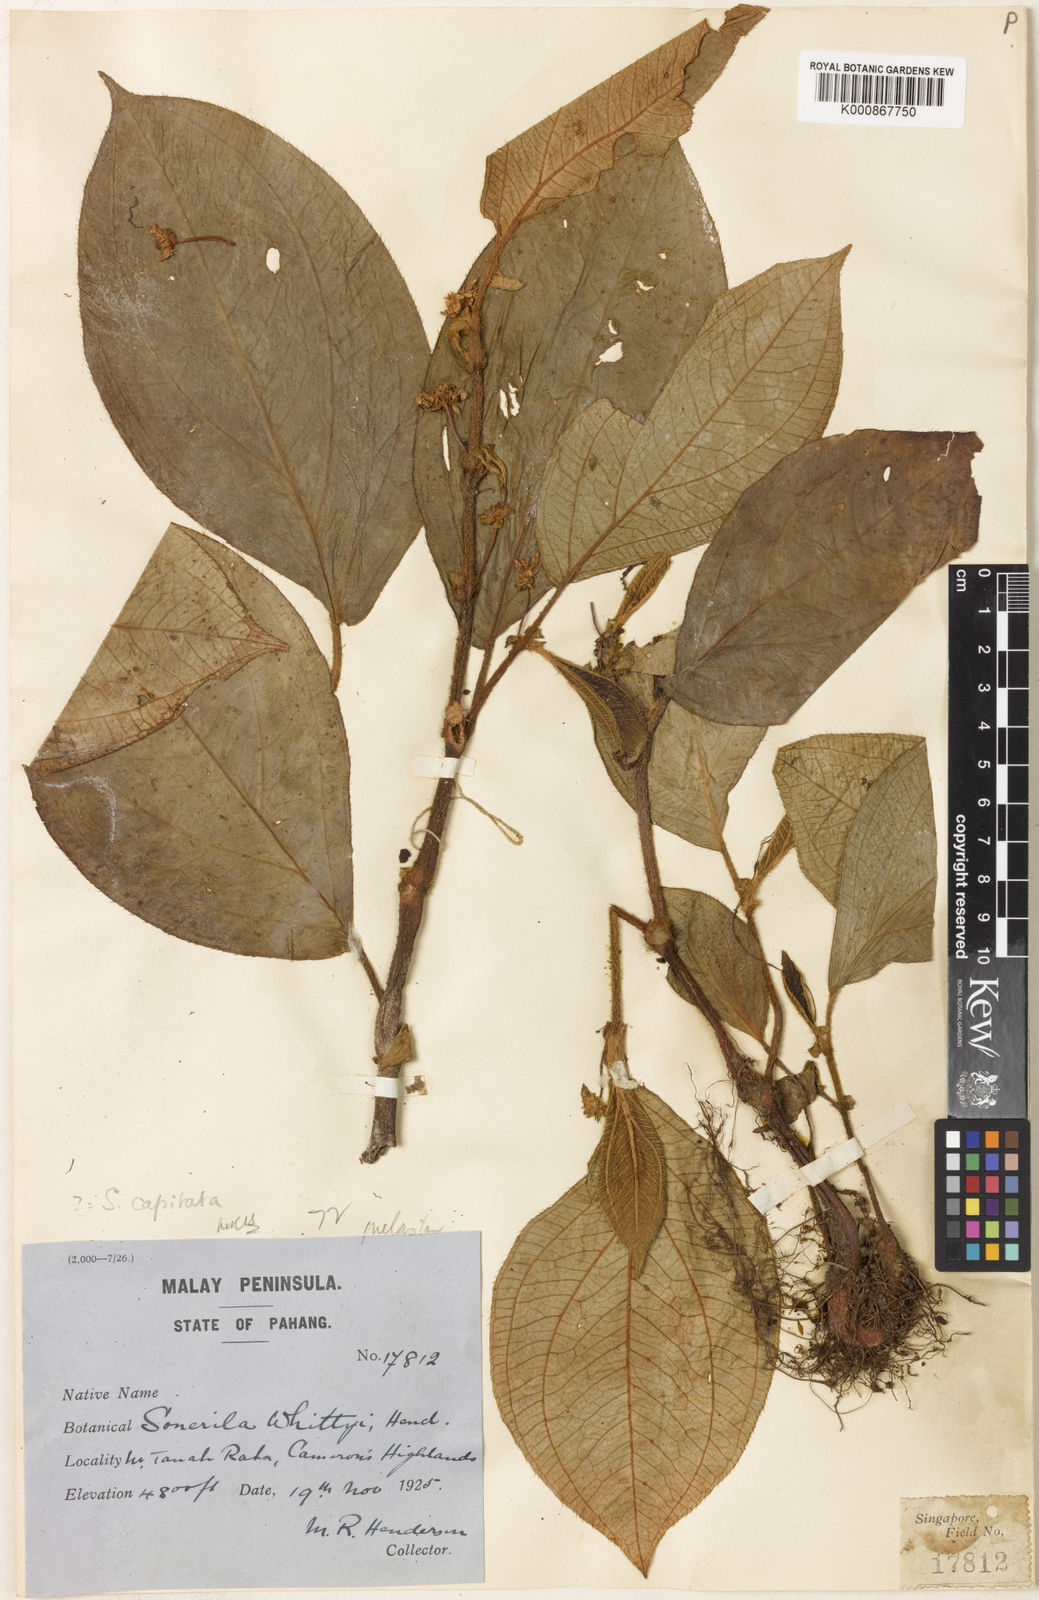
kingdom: Plantae
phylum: Tracheophyta
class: Magnoliopsida
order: Myrtales
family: Melastomataceae
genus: Sonerila
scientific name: Sonerila whittyi
